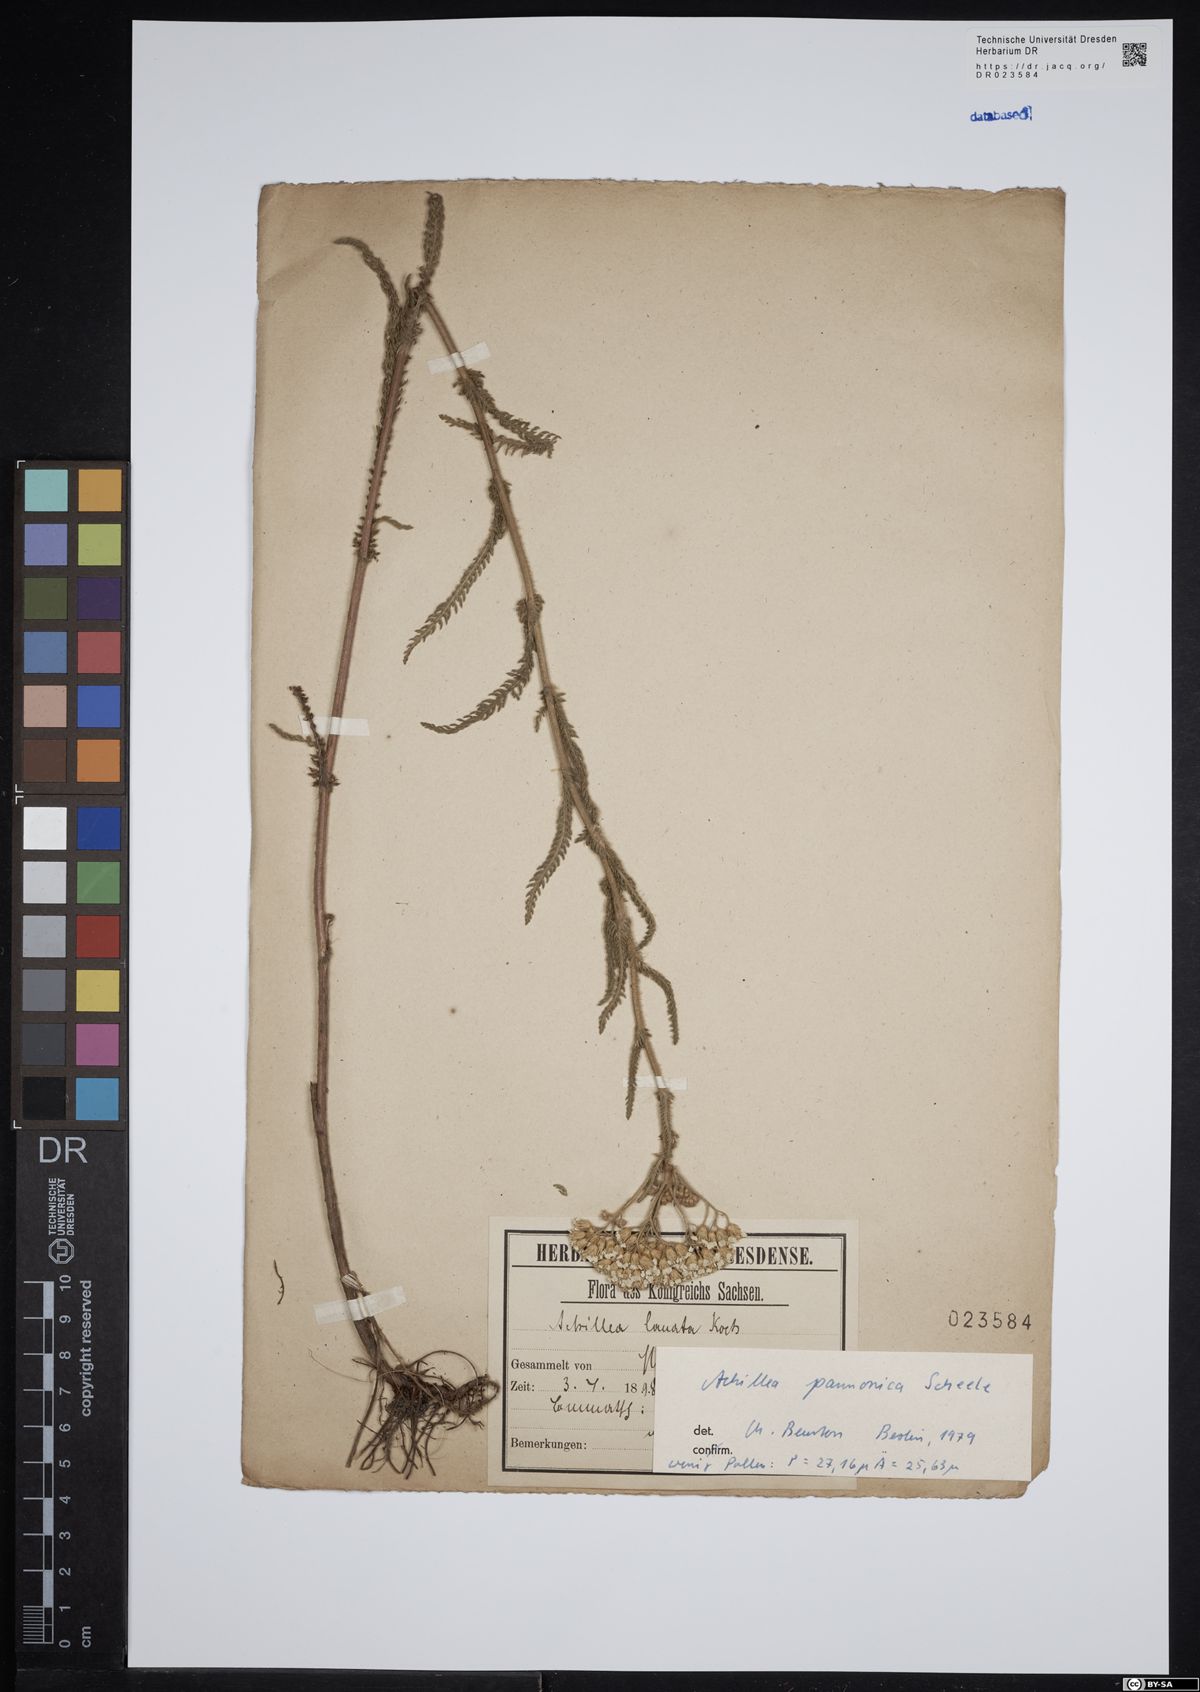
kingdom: Plantae
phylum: Tracheophyta
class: Magnoliopsida
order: Asterales
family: Asteraceae
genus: Achillea
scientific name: Achillea pannonica
